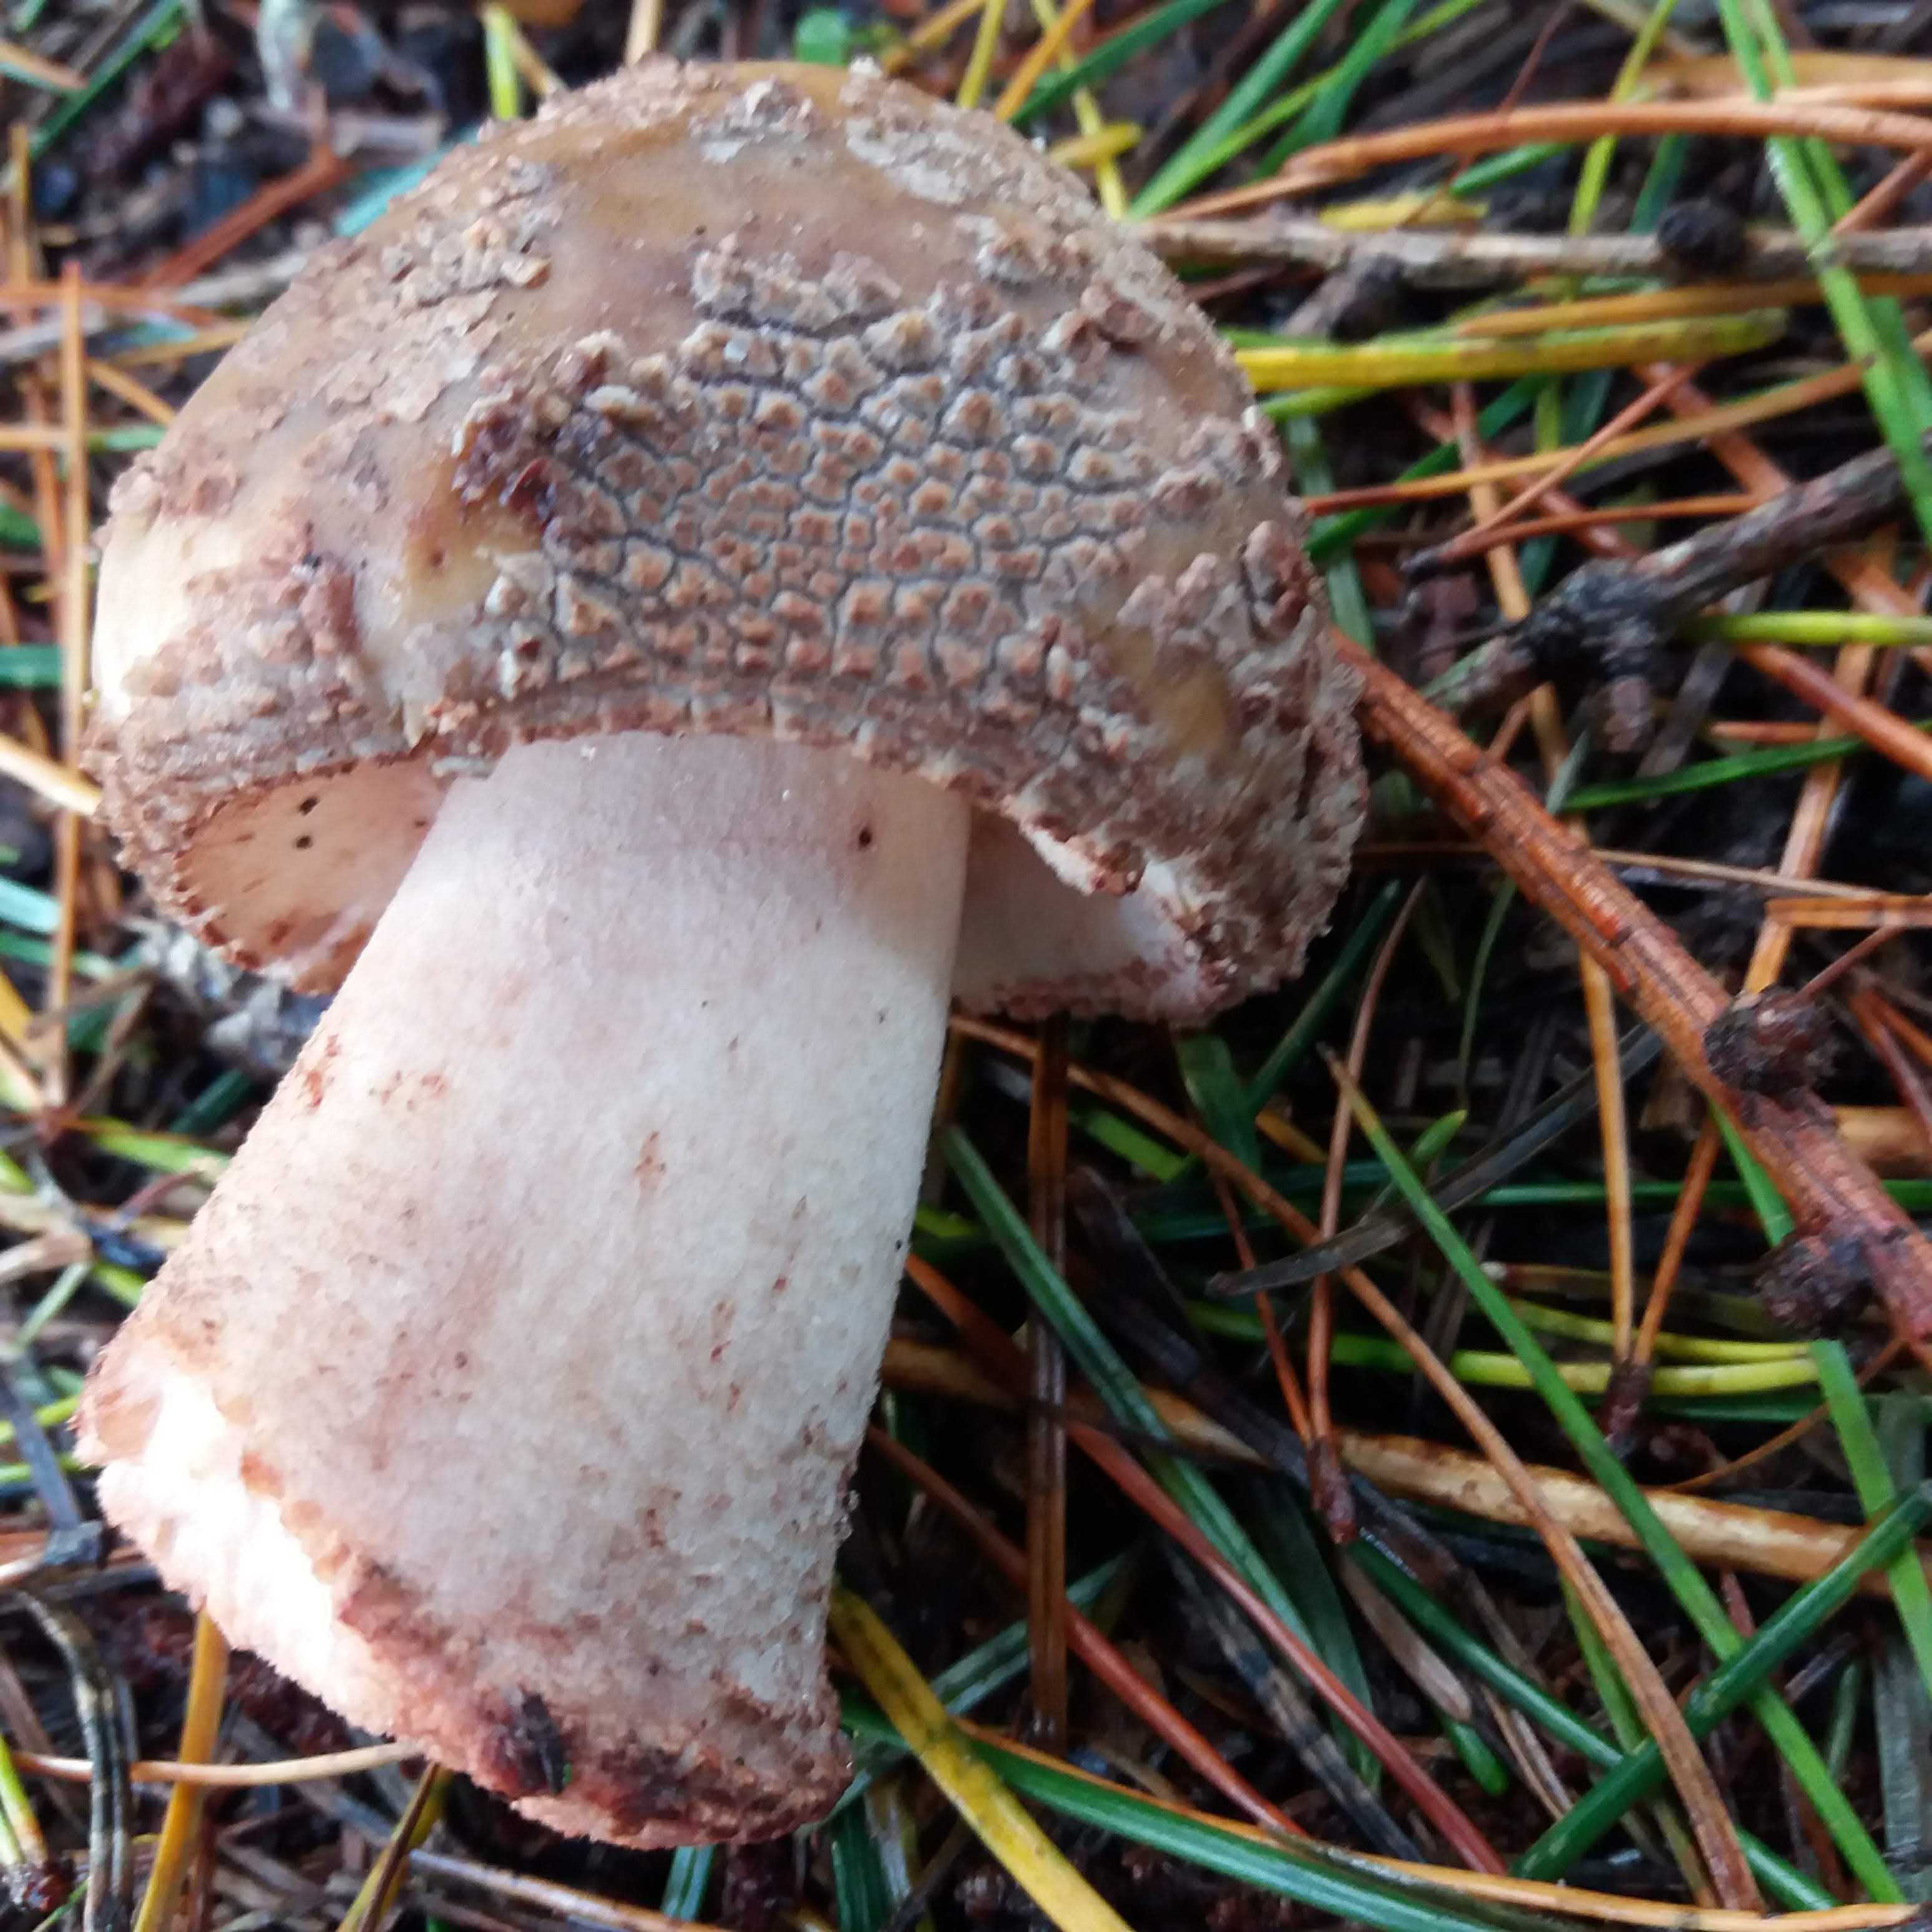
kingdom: Fungi
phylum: Basidiomycota
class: Agaricomycetes
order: Agaricales
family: Amanitaceae
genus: Amanita
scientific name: Amanita rubescens
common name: rødmende fluesvamp
